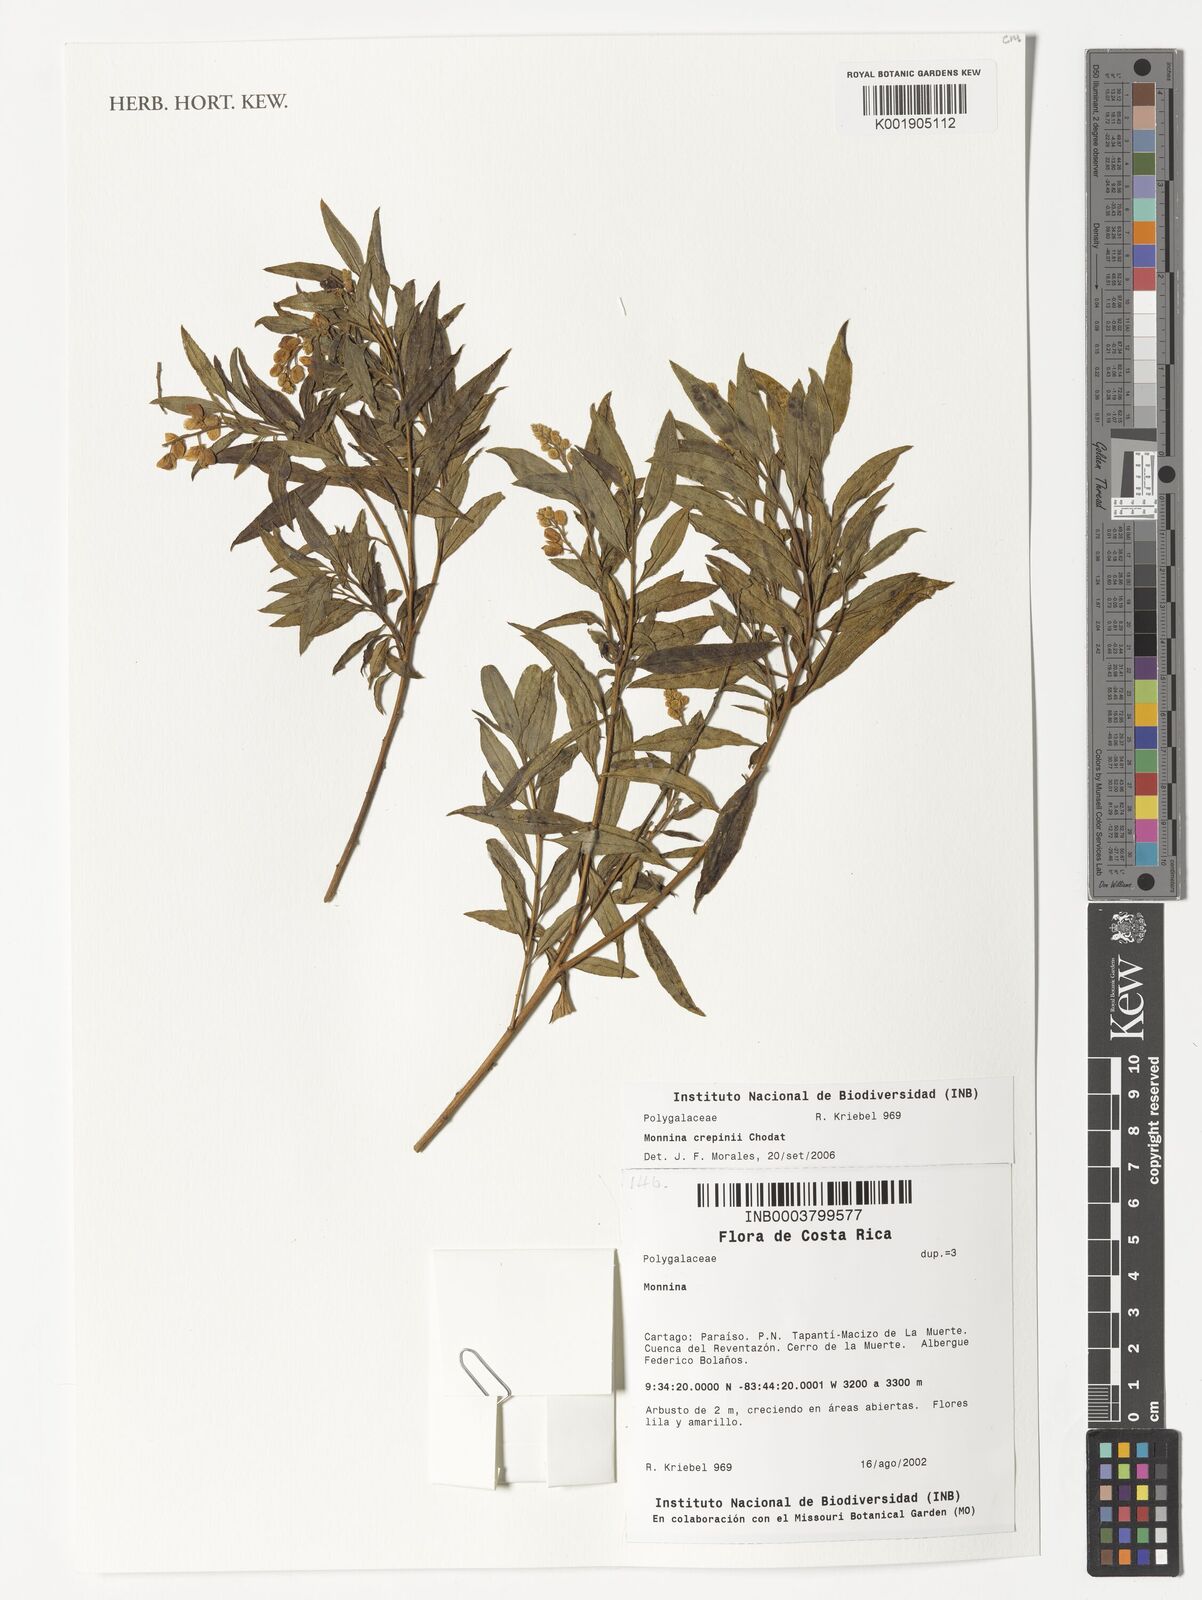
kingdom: Plantae
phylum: Tracheophyta
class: Magnoliopsida
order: Fabales
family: Polygalaceae
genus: Monnina
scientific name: Monnina crepinii
